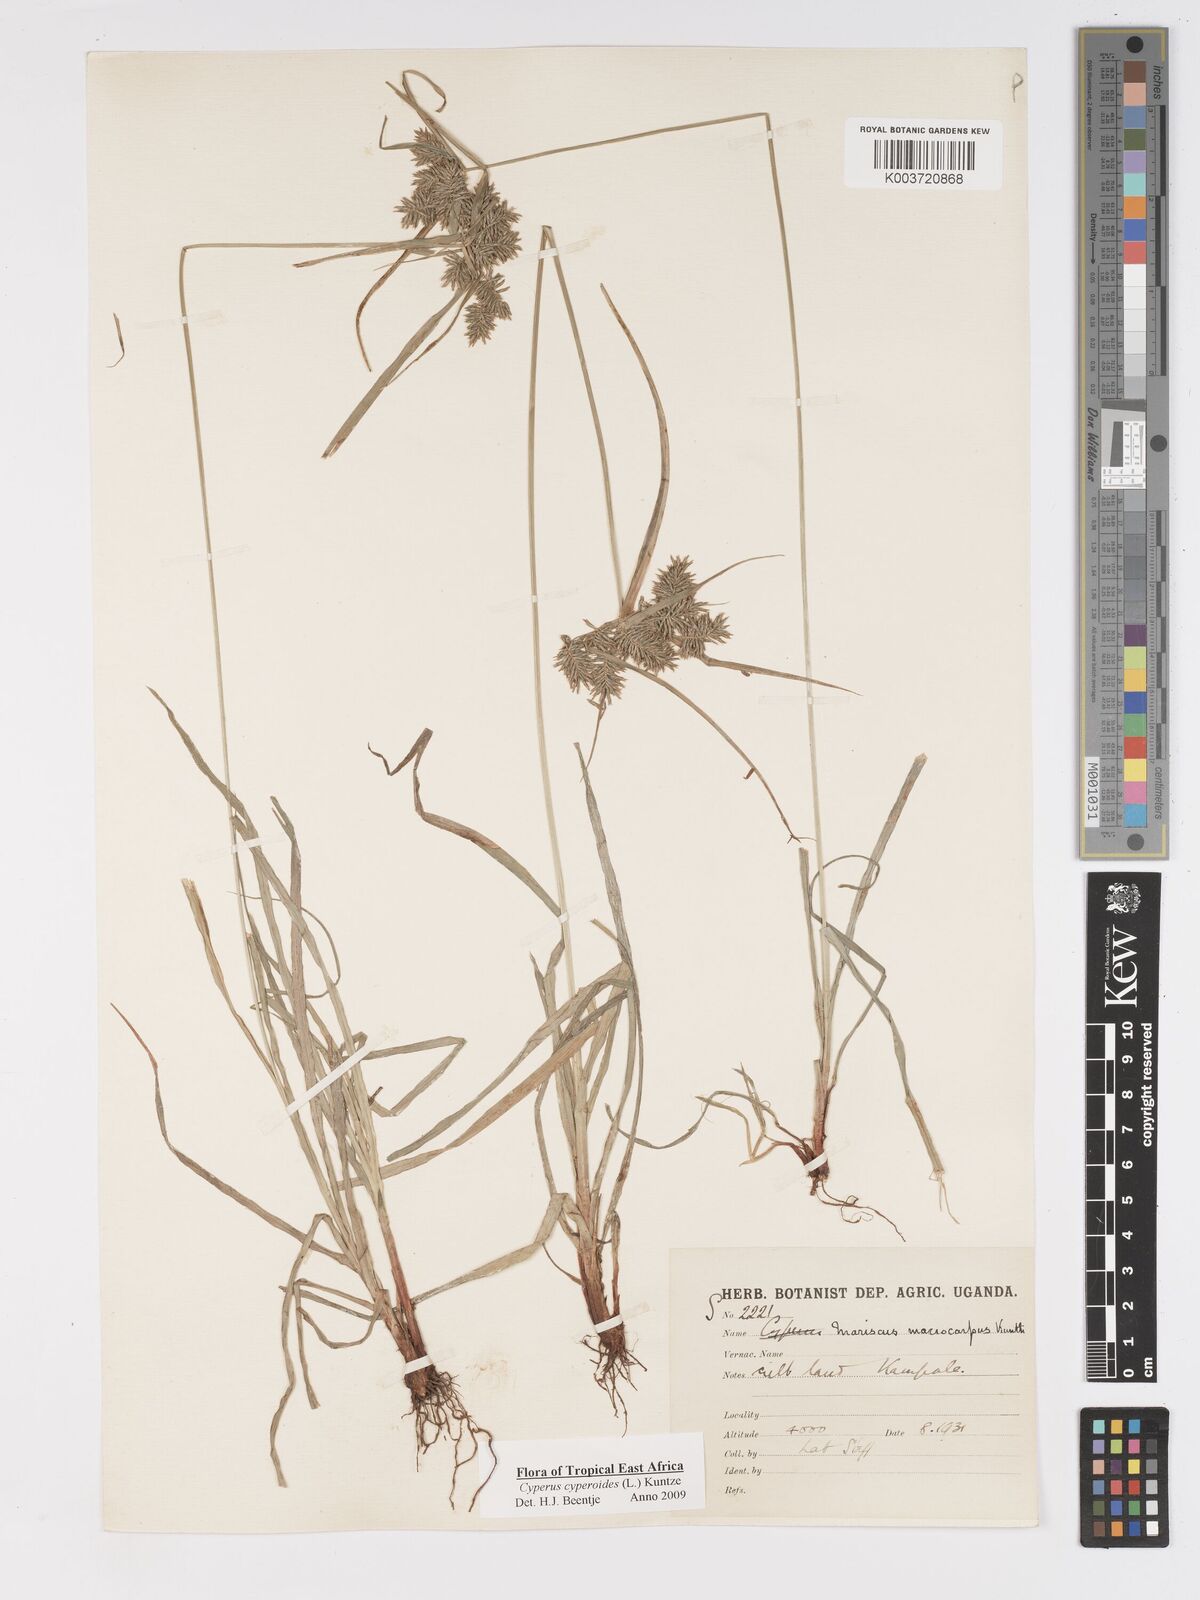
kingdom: Plantae
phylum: Tracheophyta
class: Liliopsida
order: Poales
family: Cyperaceae
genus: Cyperus
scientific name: Cyperus macrocarpus
